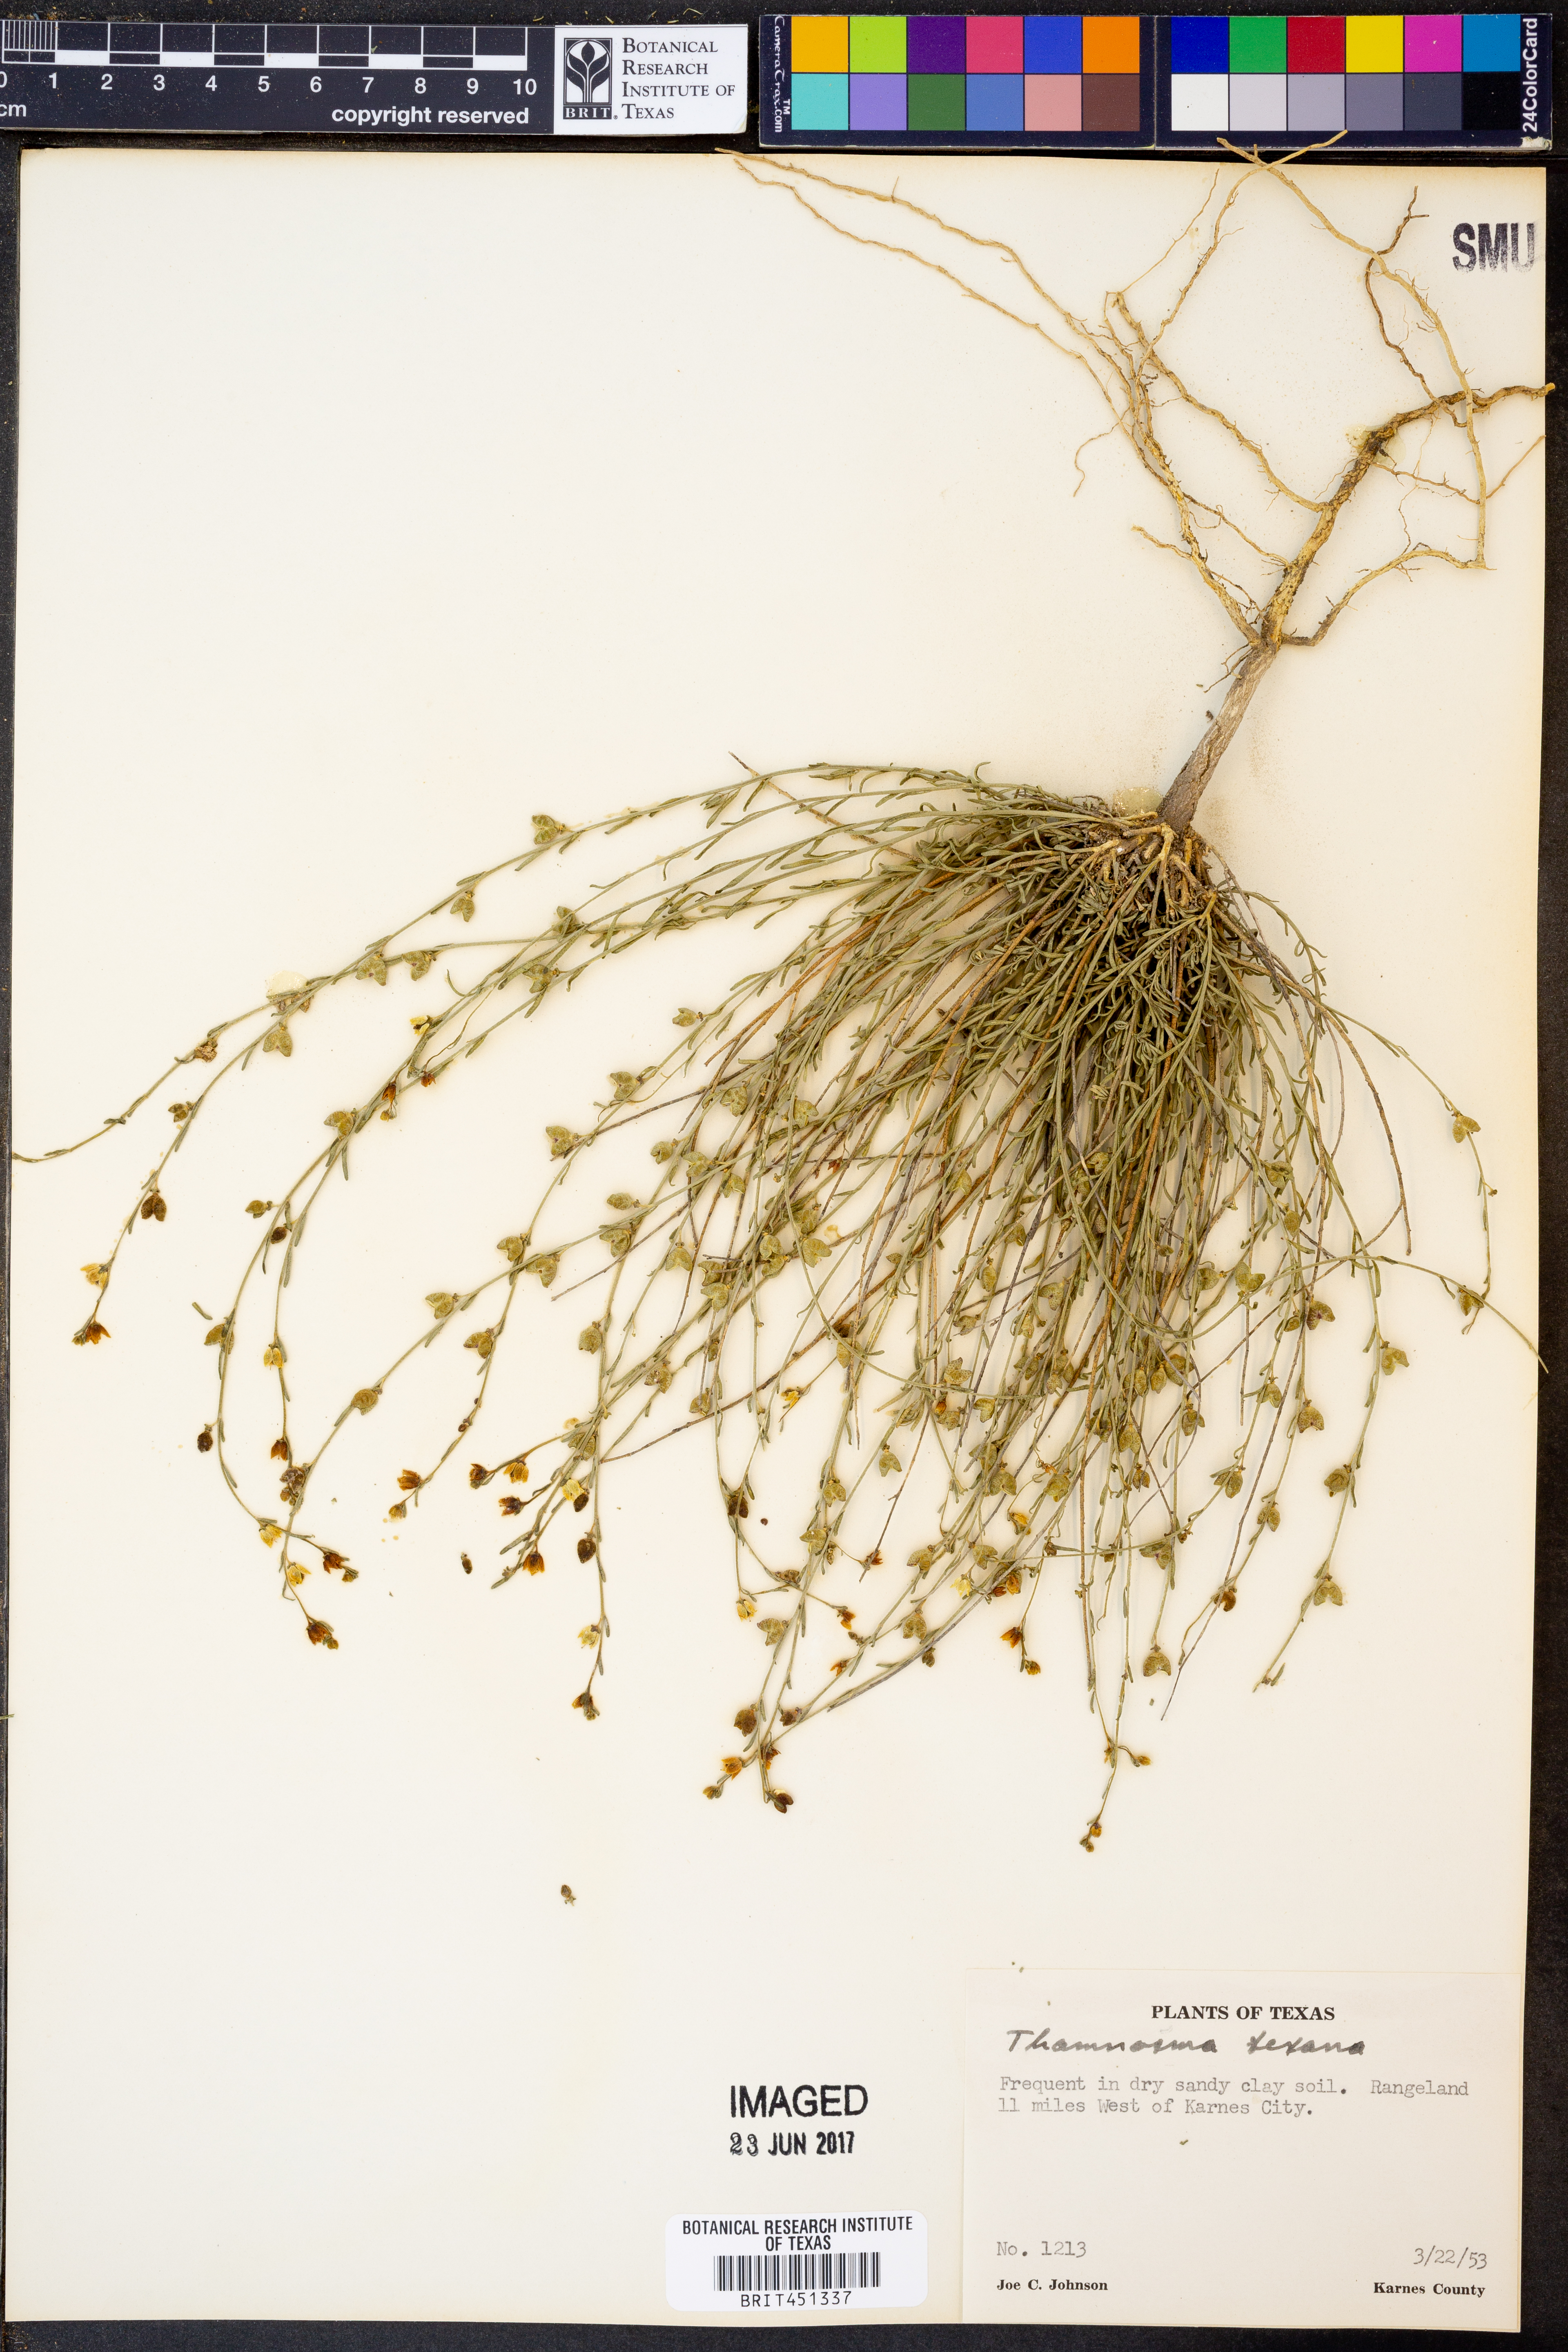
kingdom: Plantae
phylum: Tracheophyta
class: Magnoliopsida
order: Sapindales
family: Rutaceae
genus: Thamnosma
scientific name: Thamnosma texana
